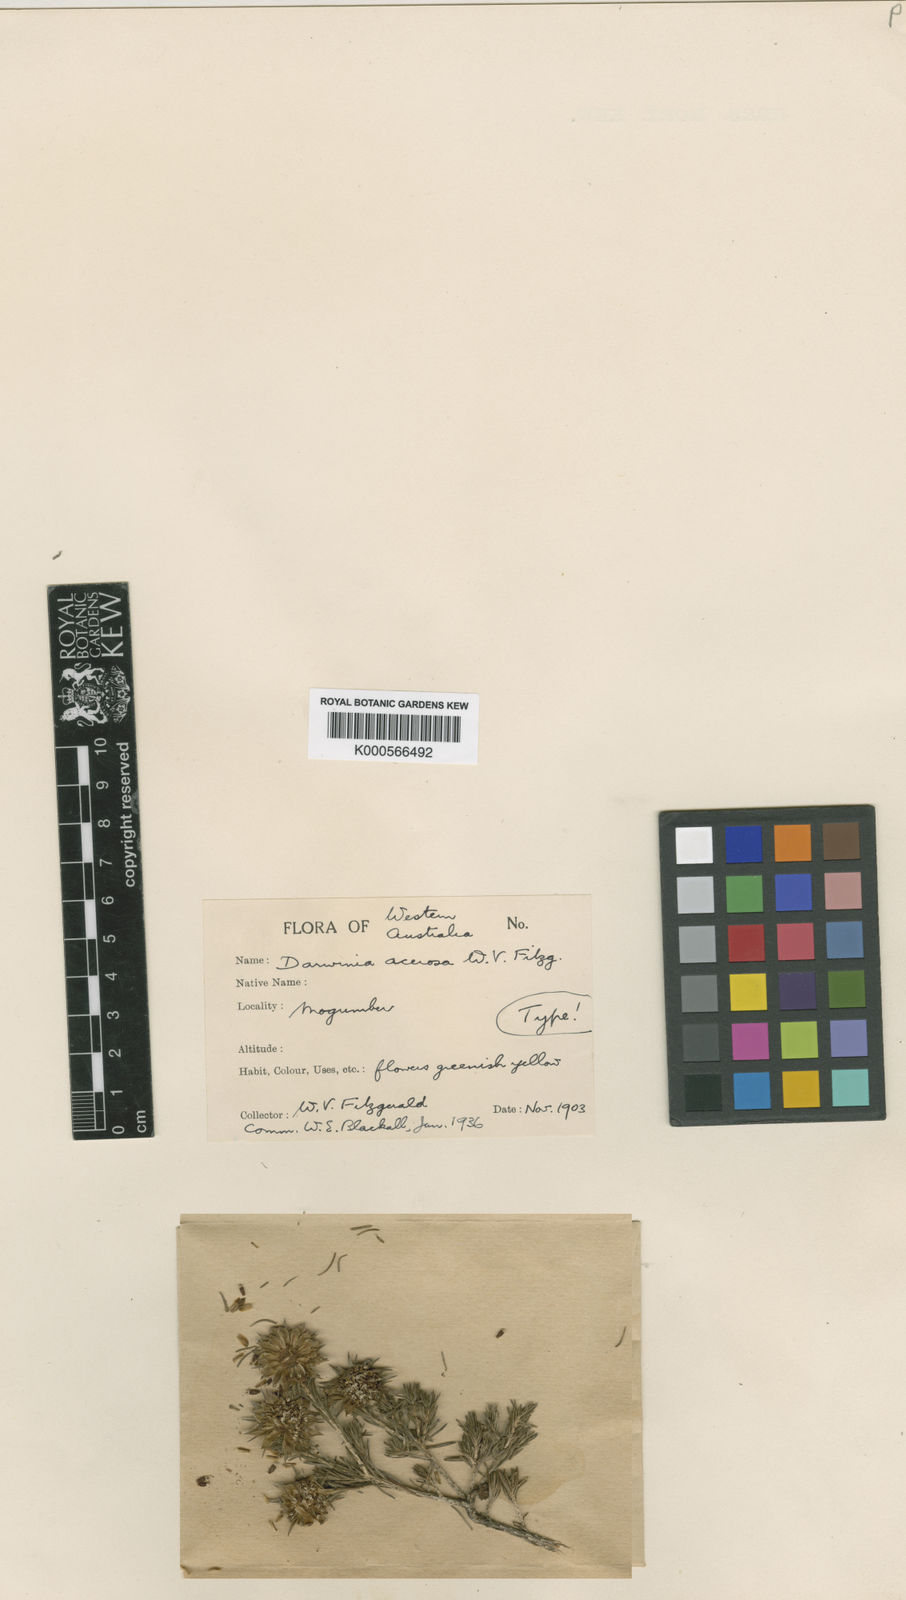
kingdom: Plantae
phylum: Tracheophyta
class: Magnoliopsida
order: Myrtales
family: Myrtaceae
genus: Darwinia
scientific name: Darwinia acerosa
